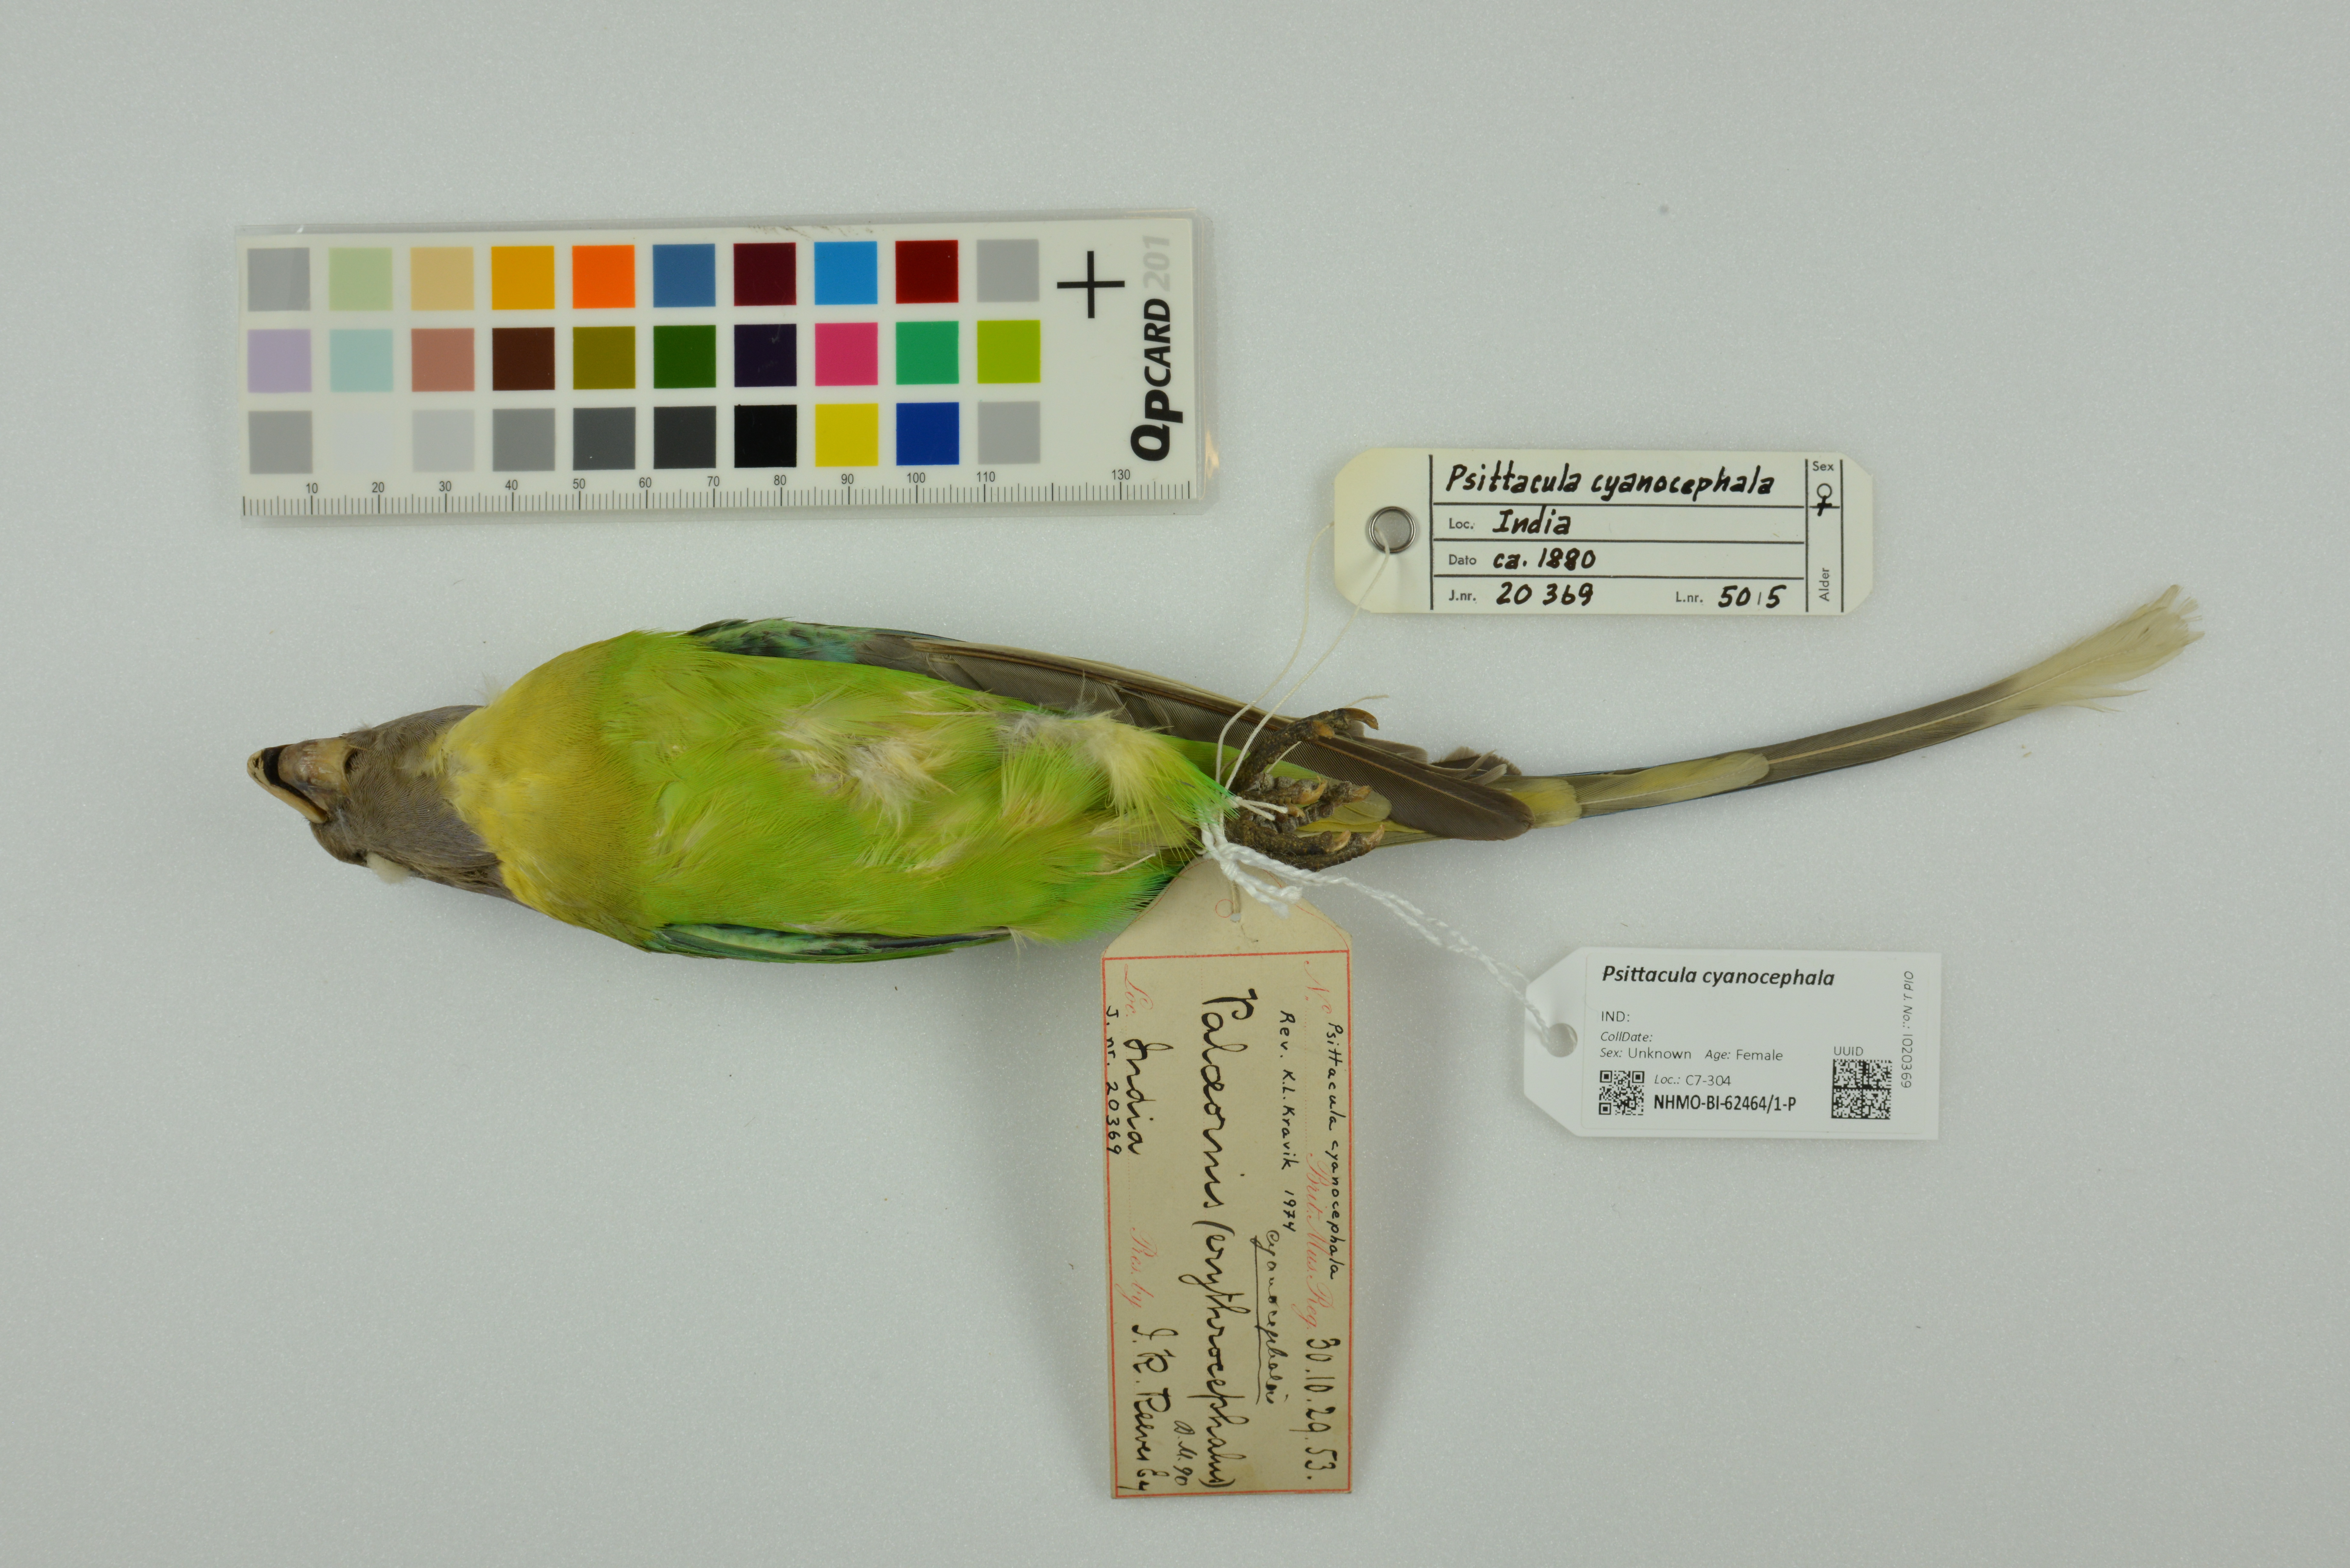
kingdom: Animalia
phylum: Chordata
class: Aves
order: Psittaciformes
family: Psittacidae
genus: Psittacula
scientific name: Psittacula cyanocephala
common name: Plum-headed parakeet
